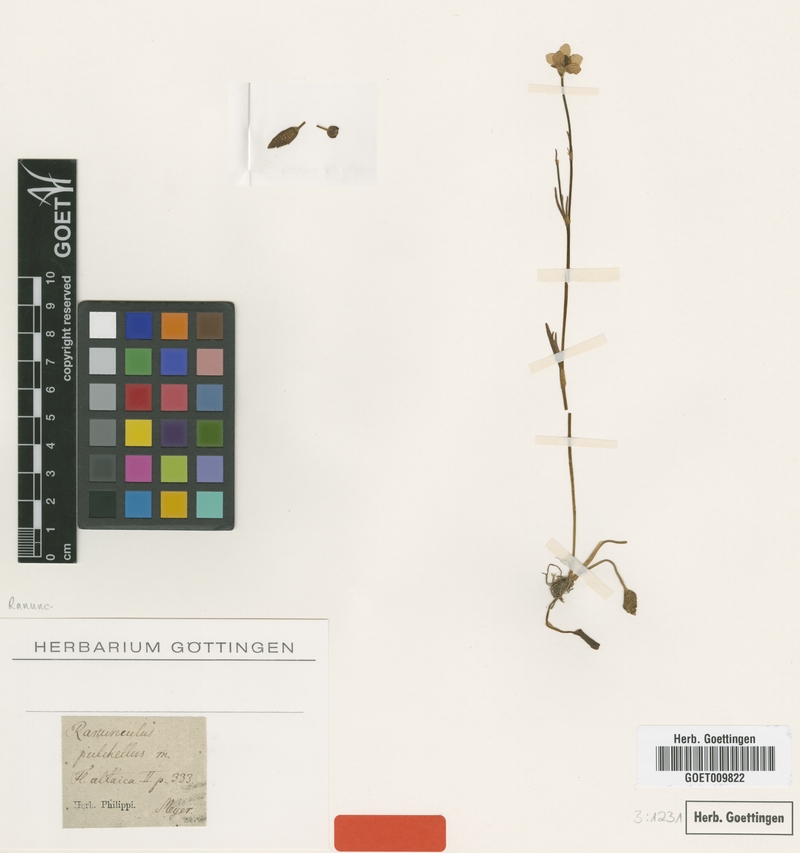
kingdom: Plantae
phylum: Tracheophyta
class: Magnoliopsida
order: Ranunculales
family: Ranunculaceae
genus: Ranunculus
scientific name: Ranunculus pulchellus
